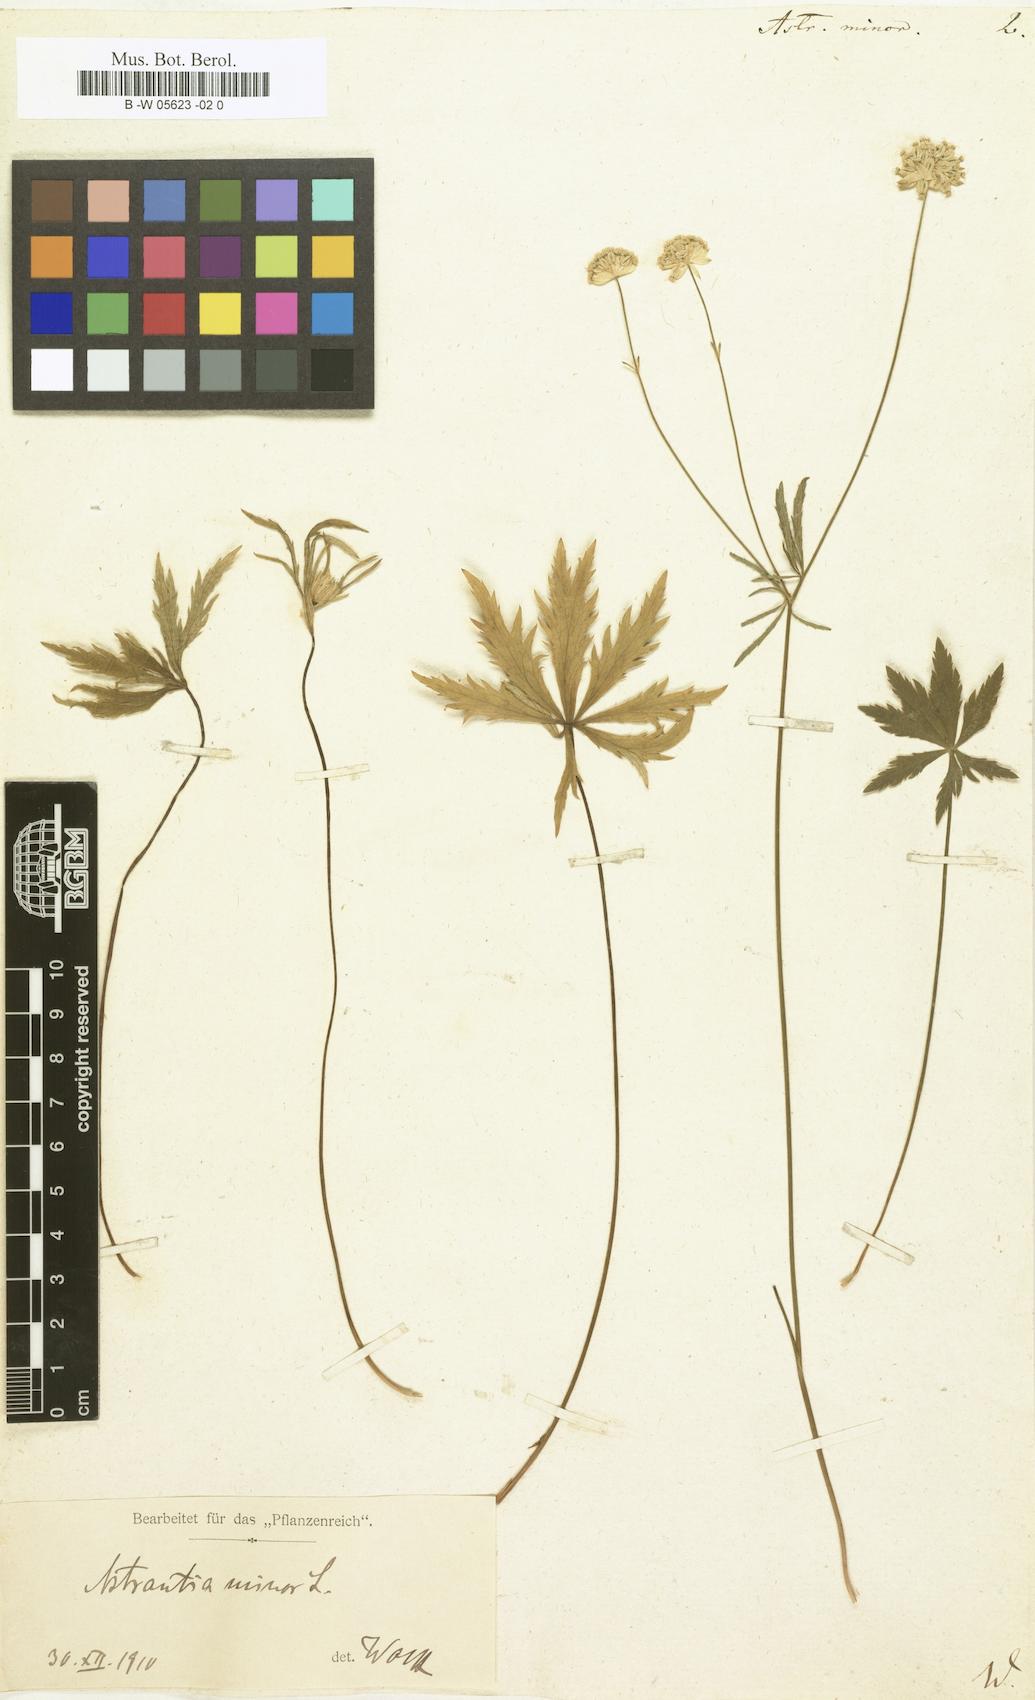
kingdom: Plantae
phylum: Tracheophyta
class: Magnoliopsida
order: Apiales
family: Apiaceae
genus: Astrantia
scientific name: Astrantia minor
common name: Lesser masterwort
